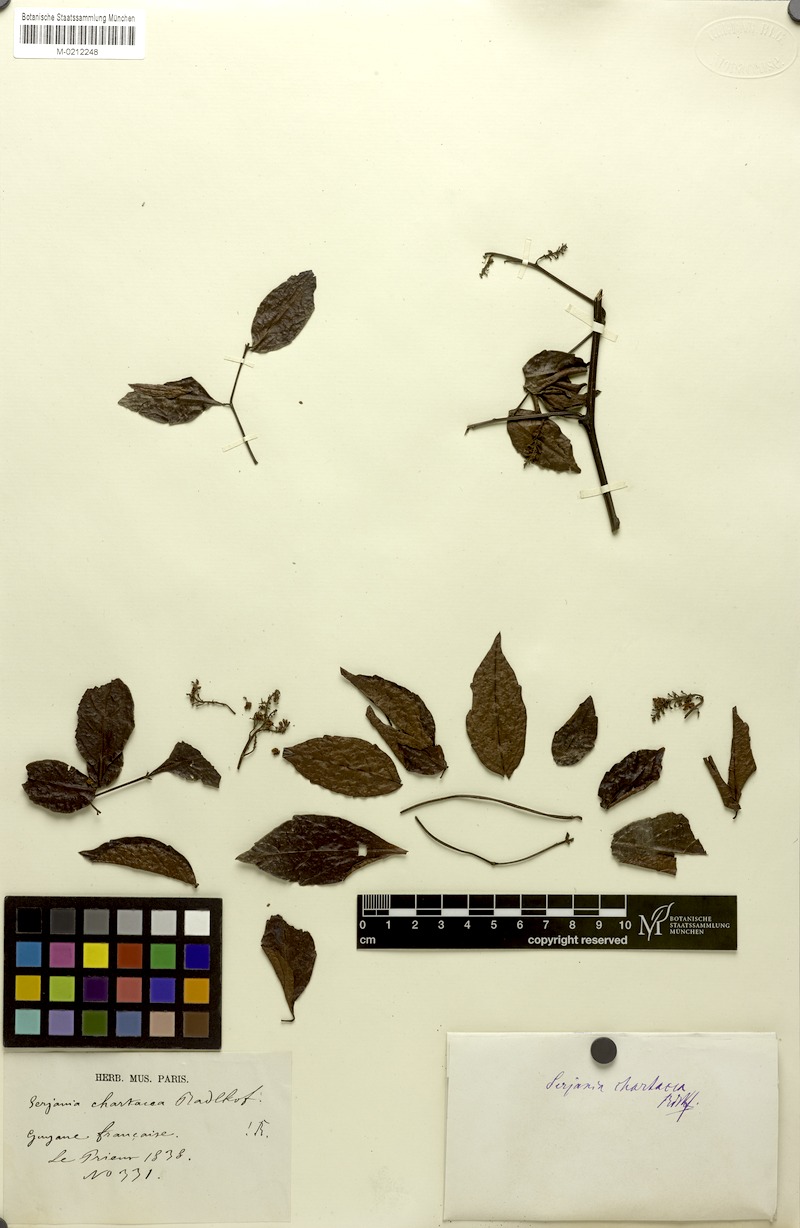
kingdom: Plantae
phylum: Tracheophyta
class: Magnoliopsida
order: Sapindales
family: Sapindaceae
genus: Serjania
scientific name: Serjania chartacea
